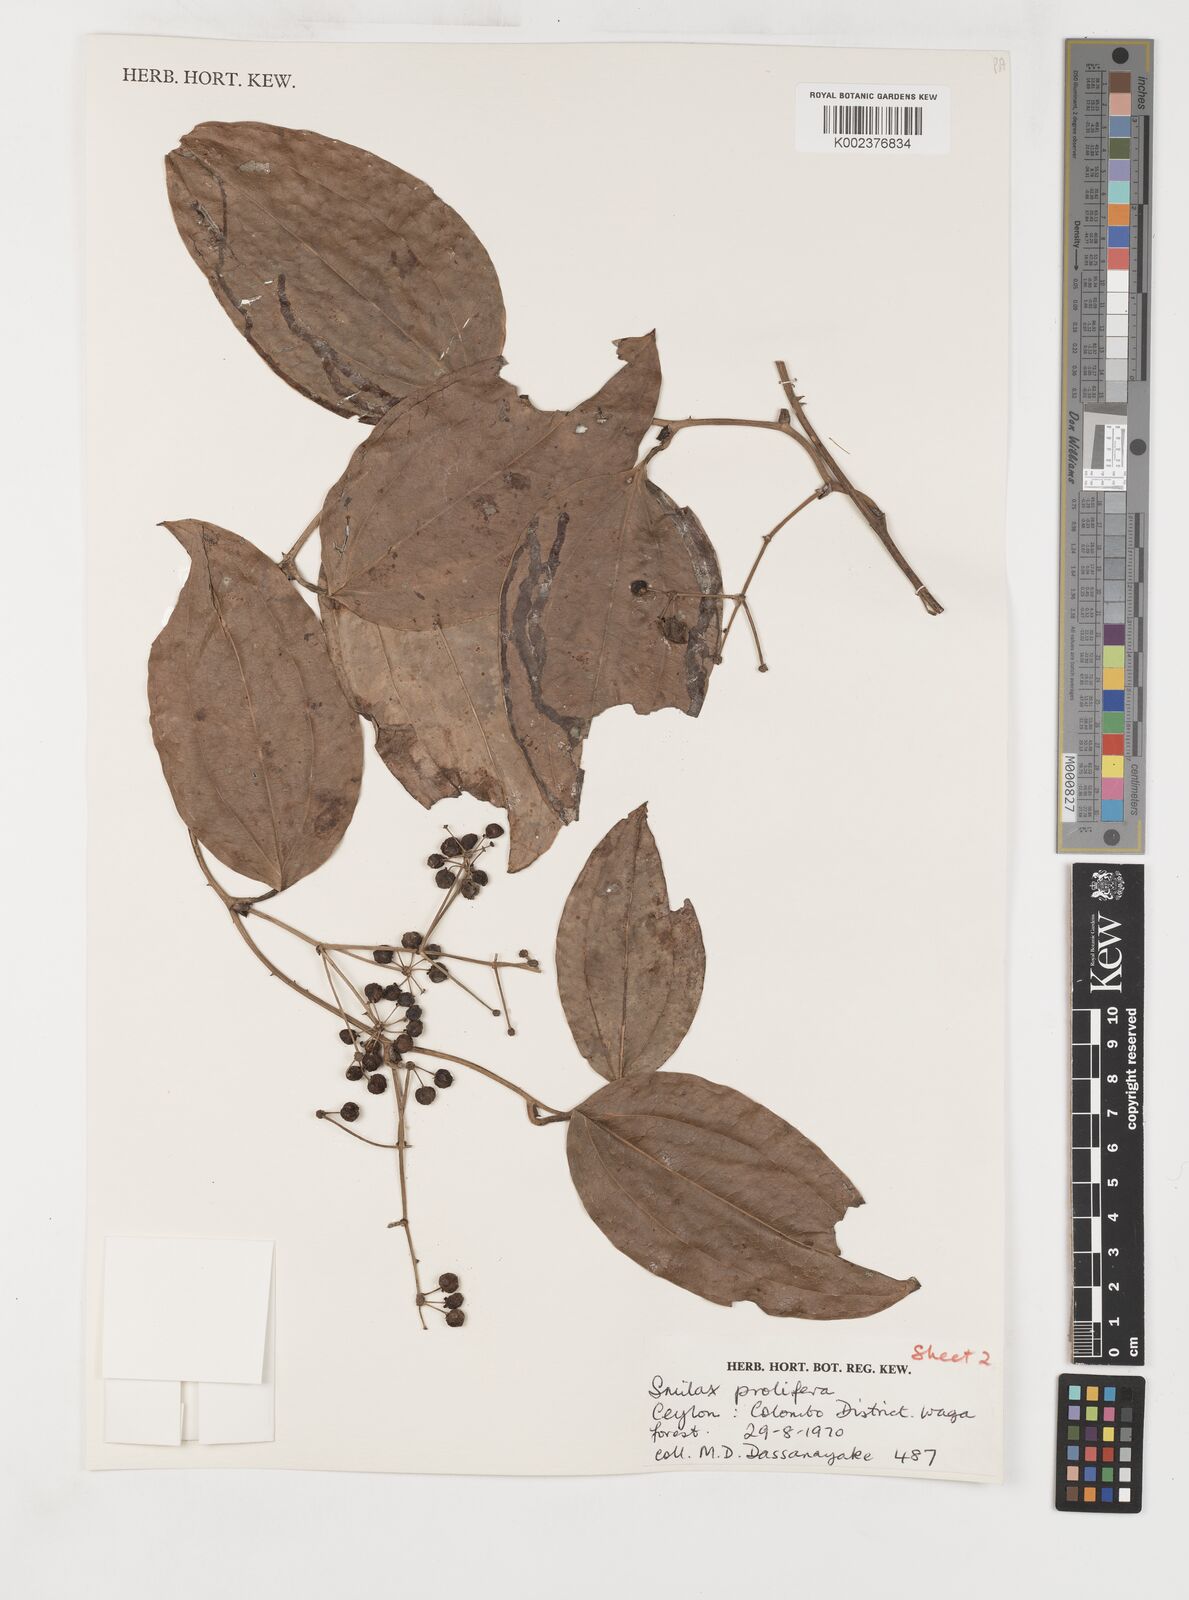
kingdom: Plantae
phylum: Tracheophyta
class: Liliopsida
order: Liliales
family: Smilacaceae
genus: Smilax
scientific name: Smilax prolifera
